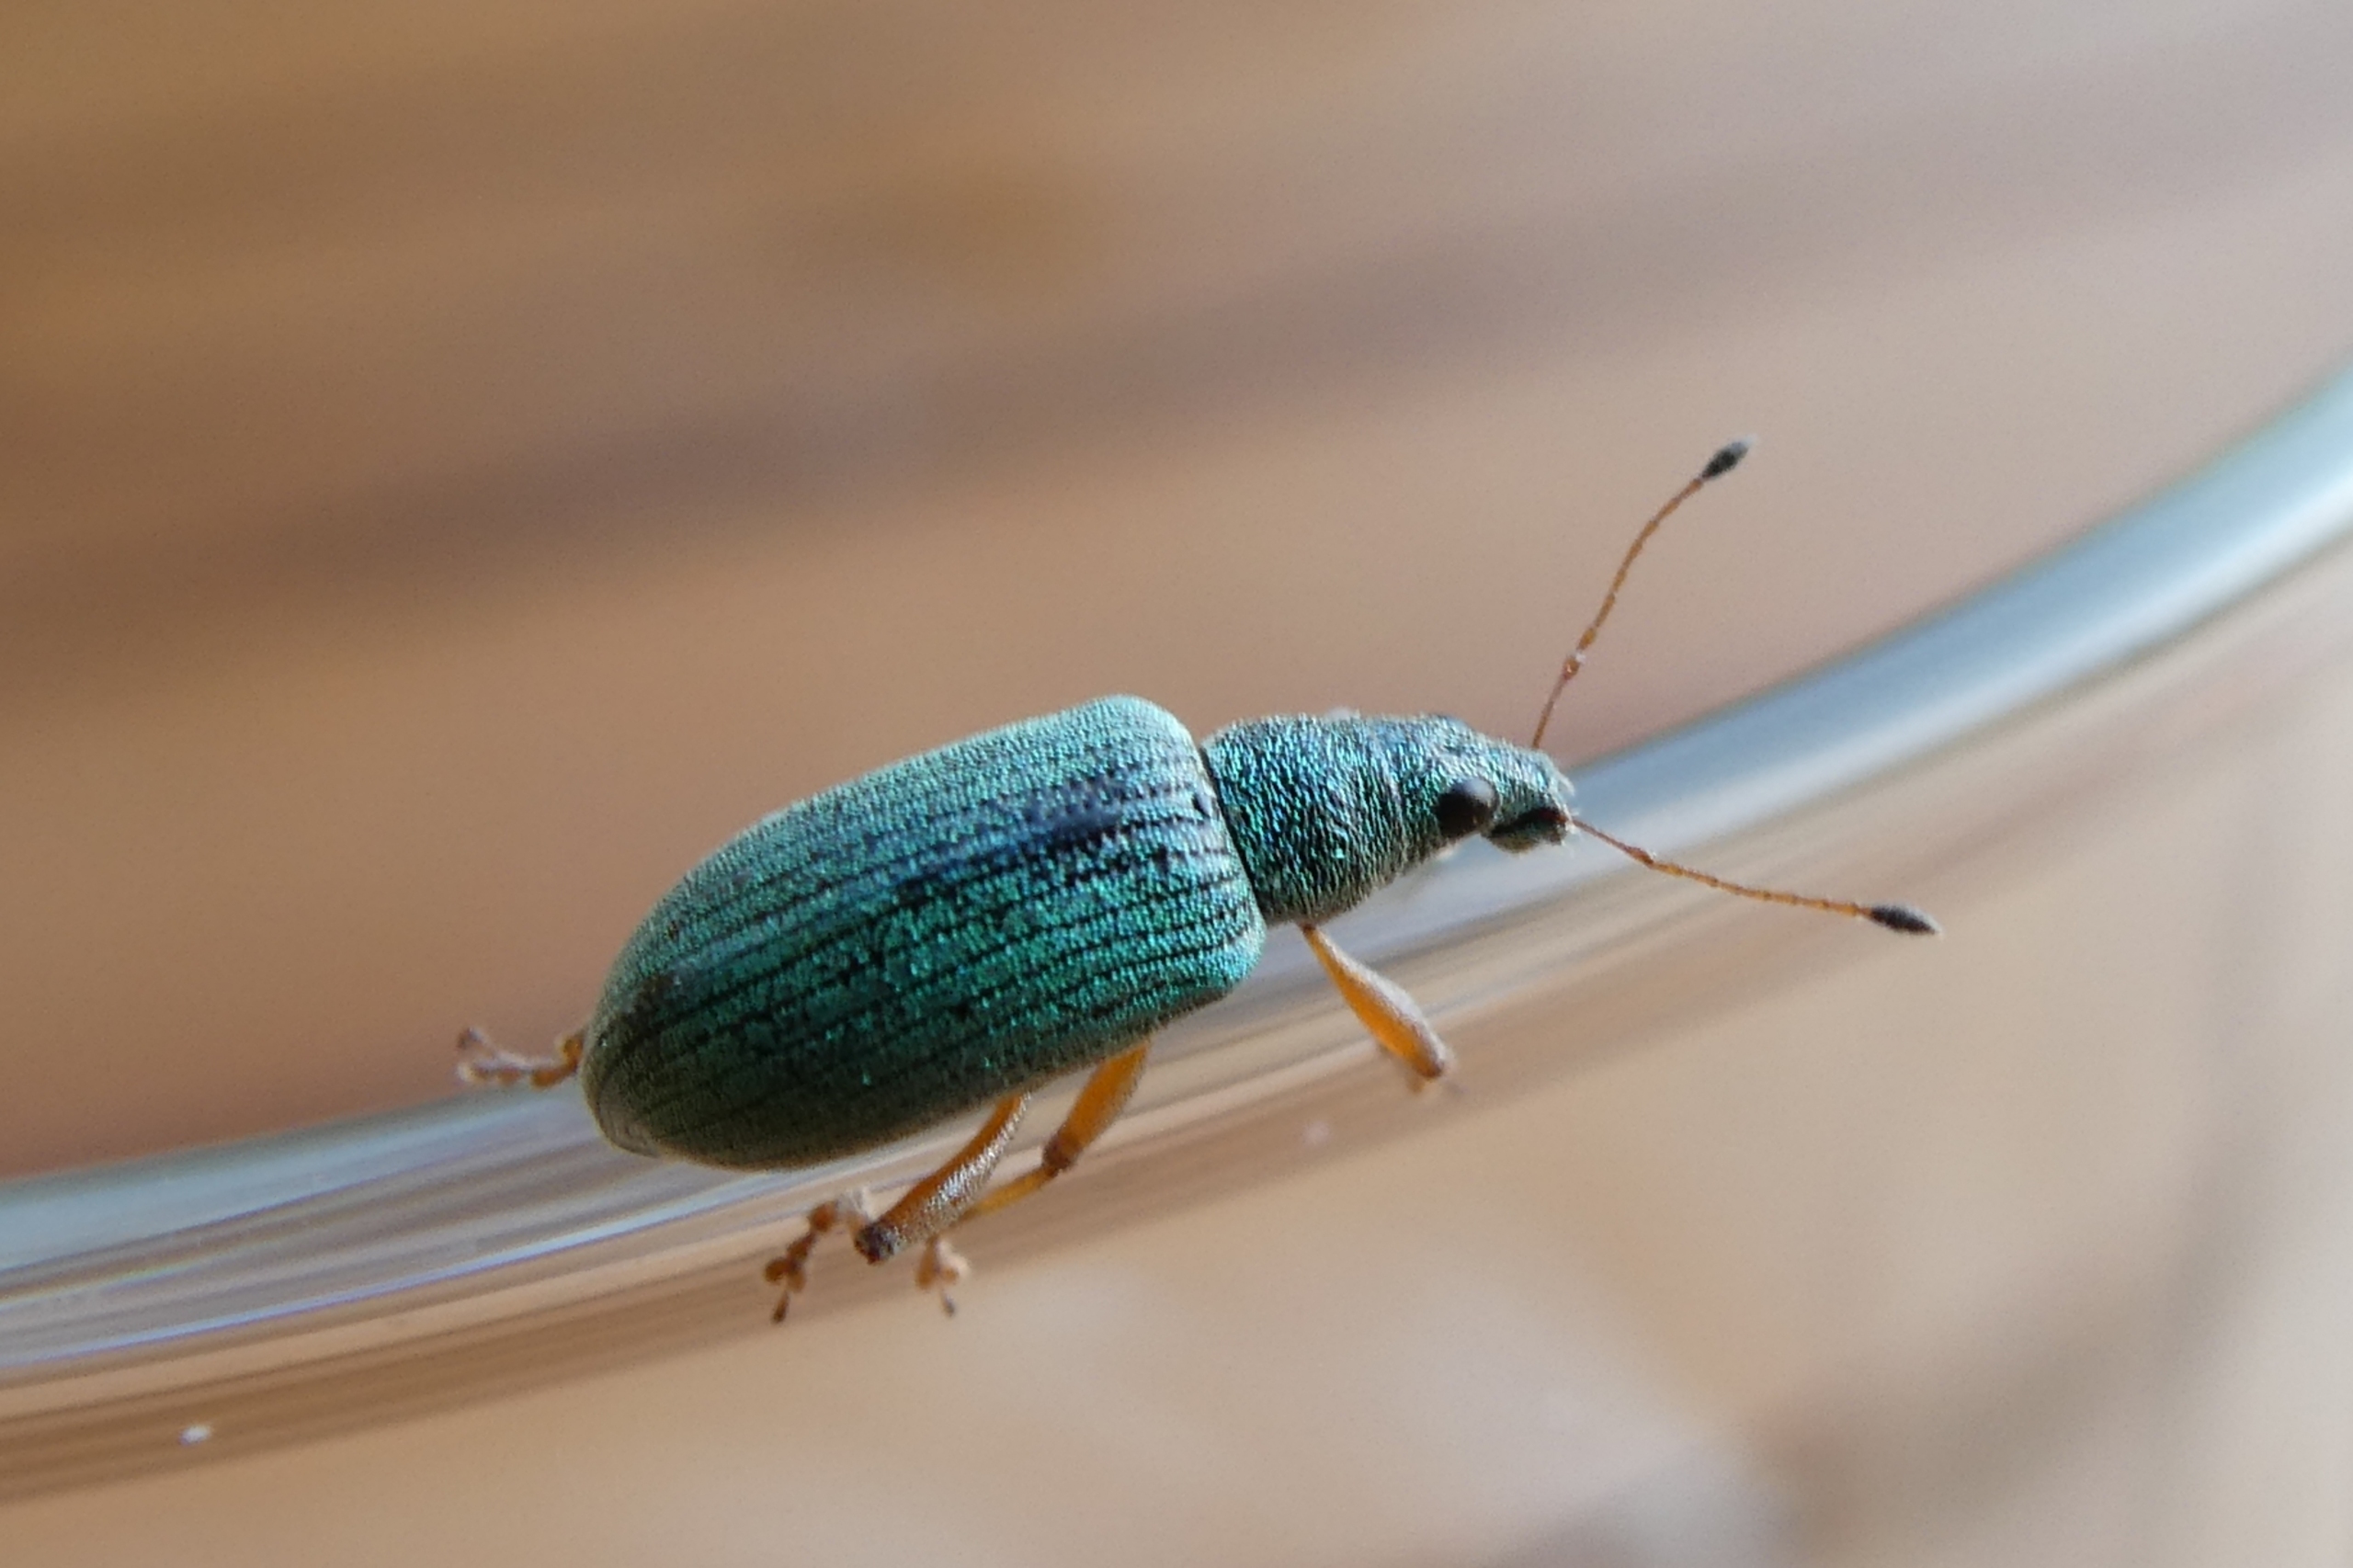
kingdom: Animalia
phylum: Arthropoda
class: Insecta
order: Coleoptera
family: Curculionidae
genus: Polydrusus
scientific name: Polydrusus formosus
